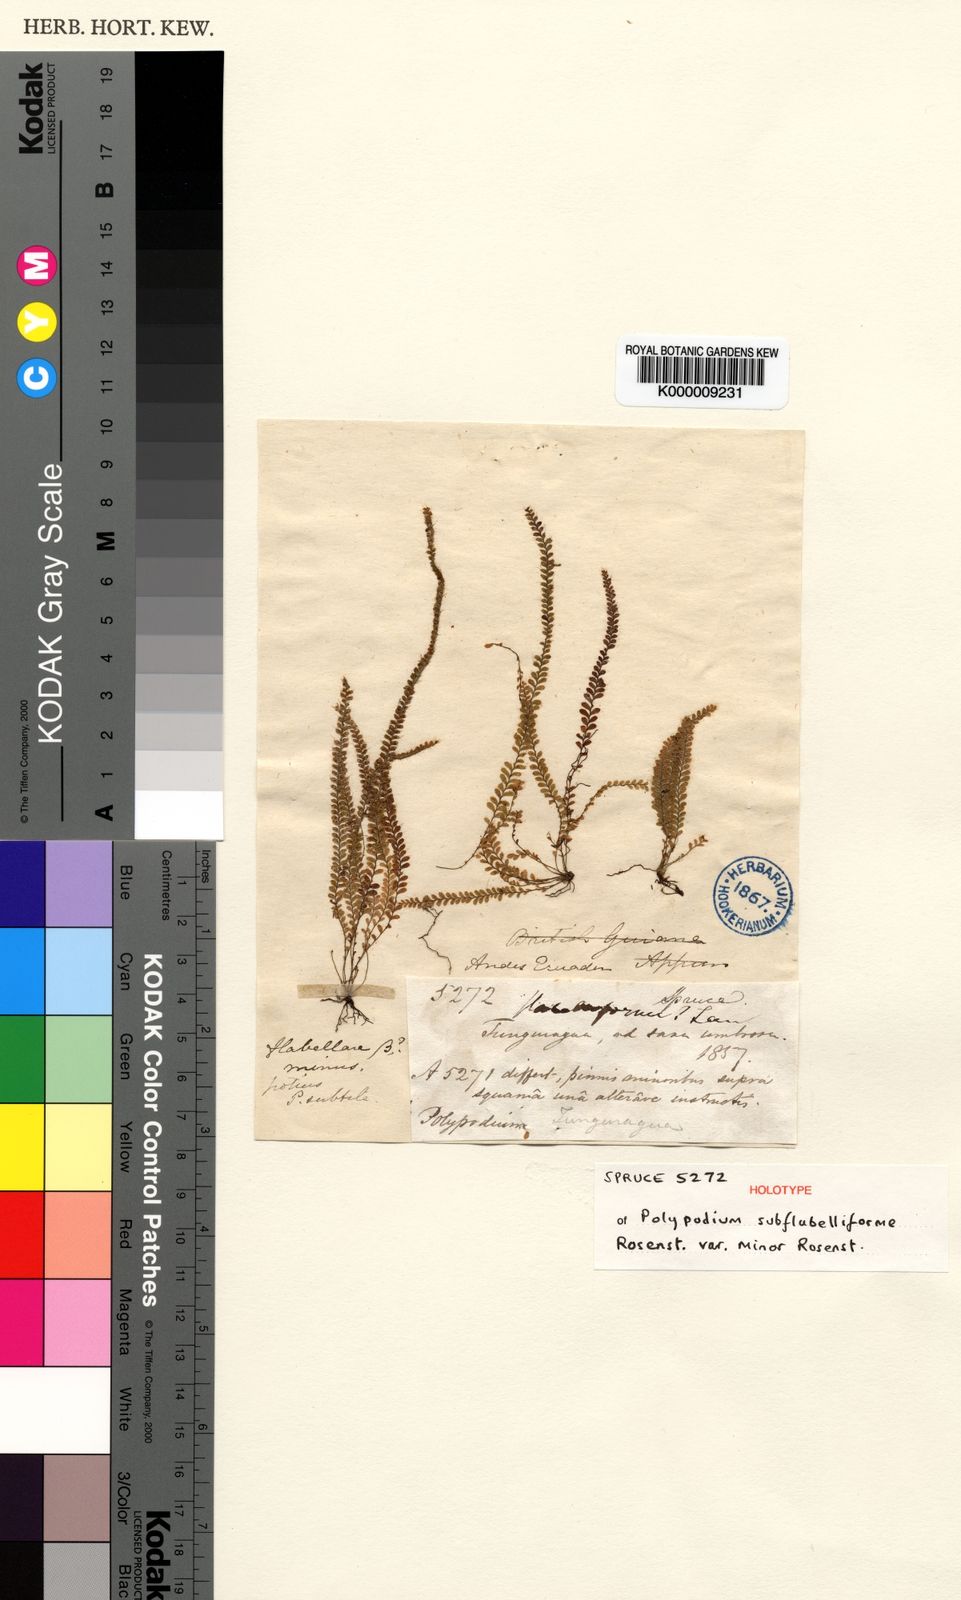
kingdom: Plantae
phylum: Tracheophyta
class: Polypodiopsida
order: Polypodiales
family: Polypodiaceae
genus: Alansmia
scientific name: Alansmia senilis
